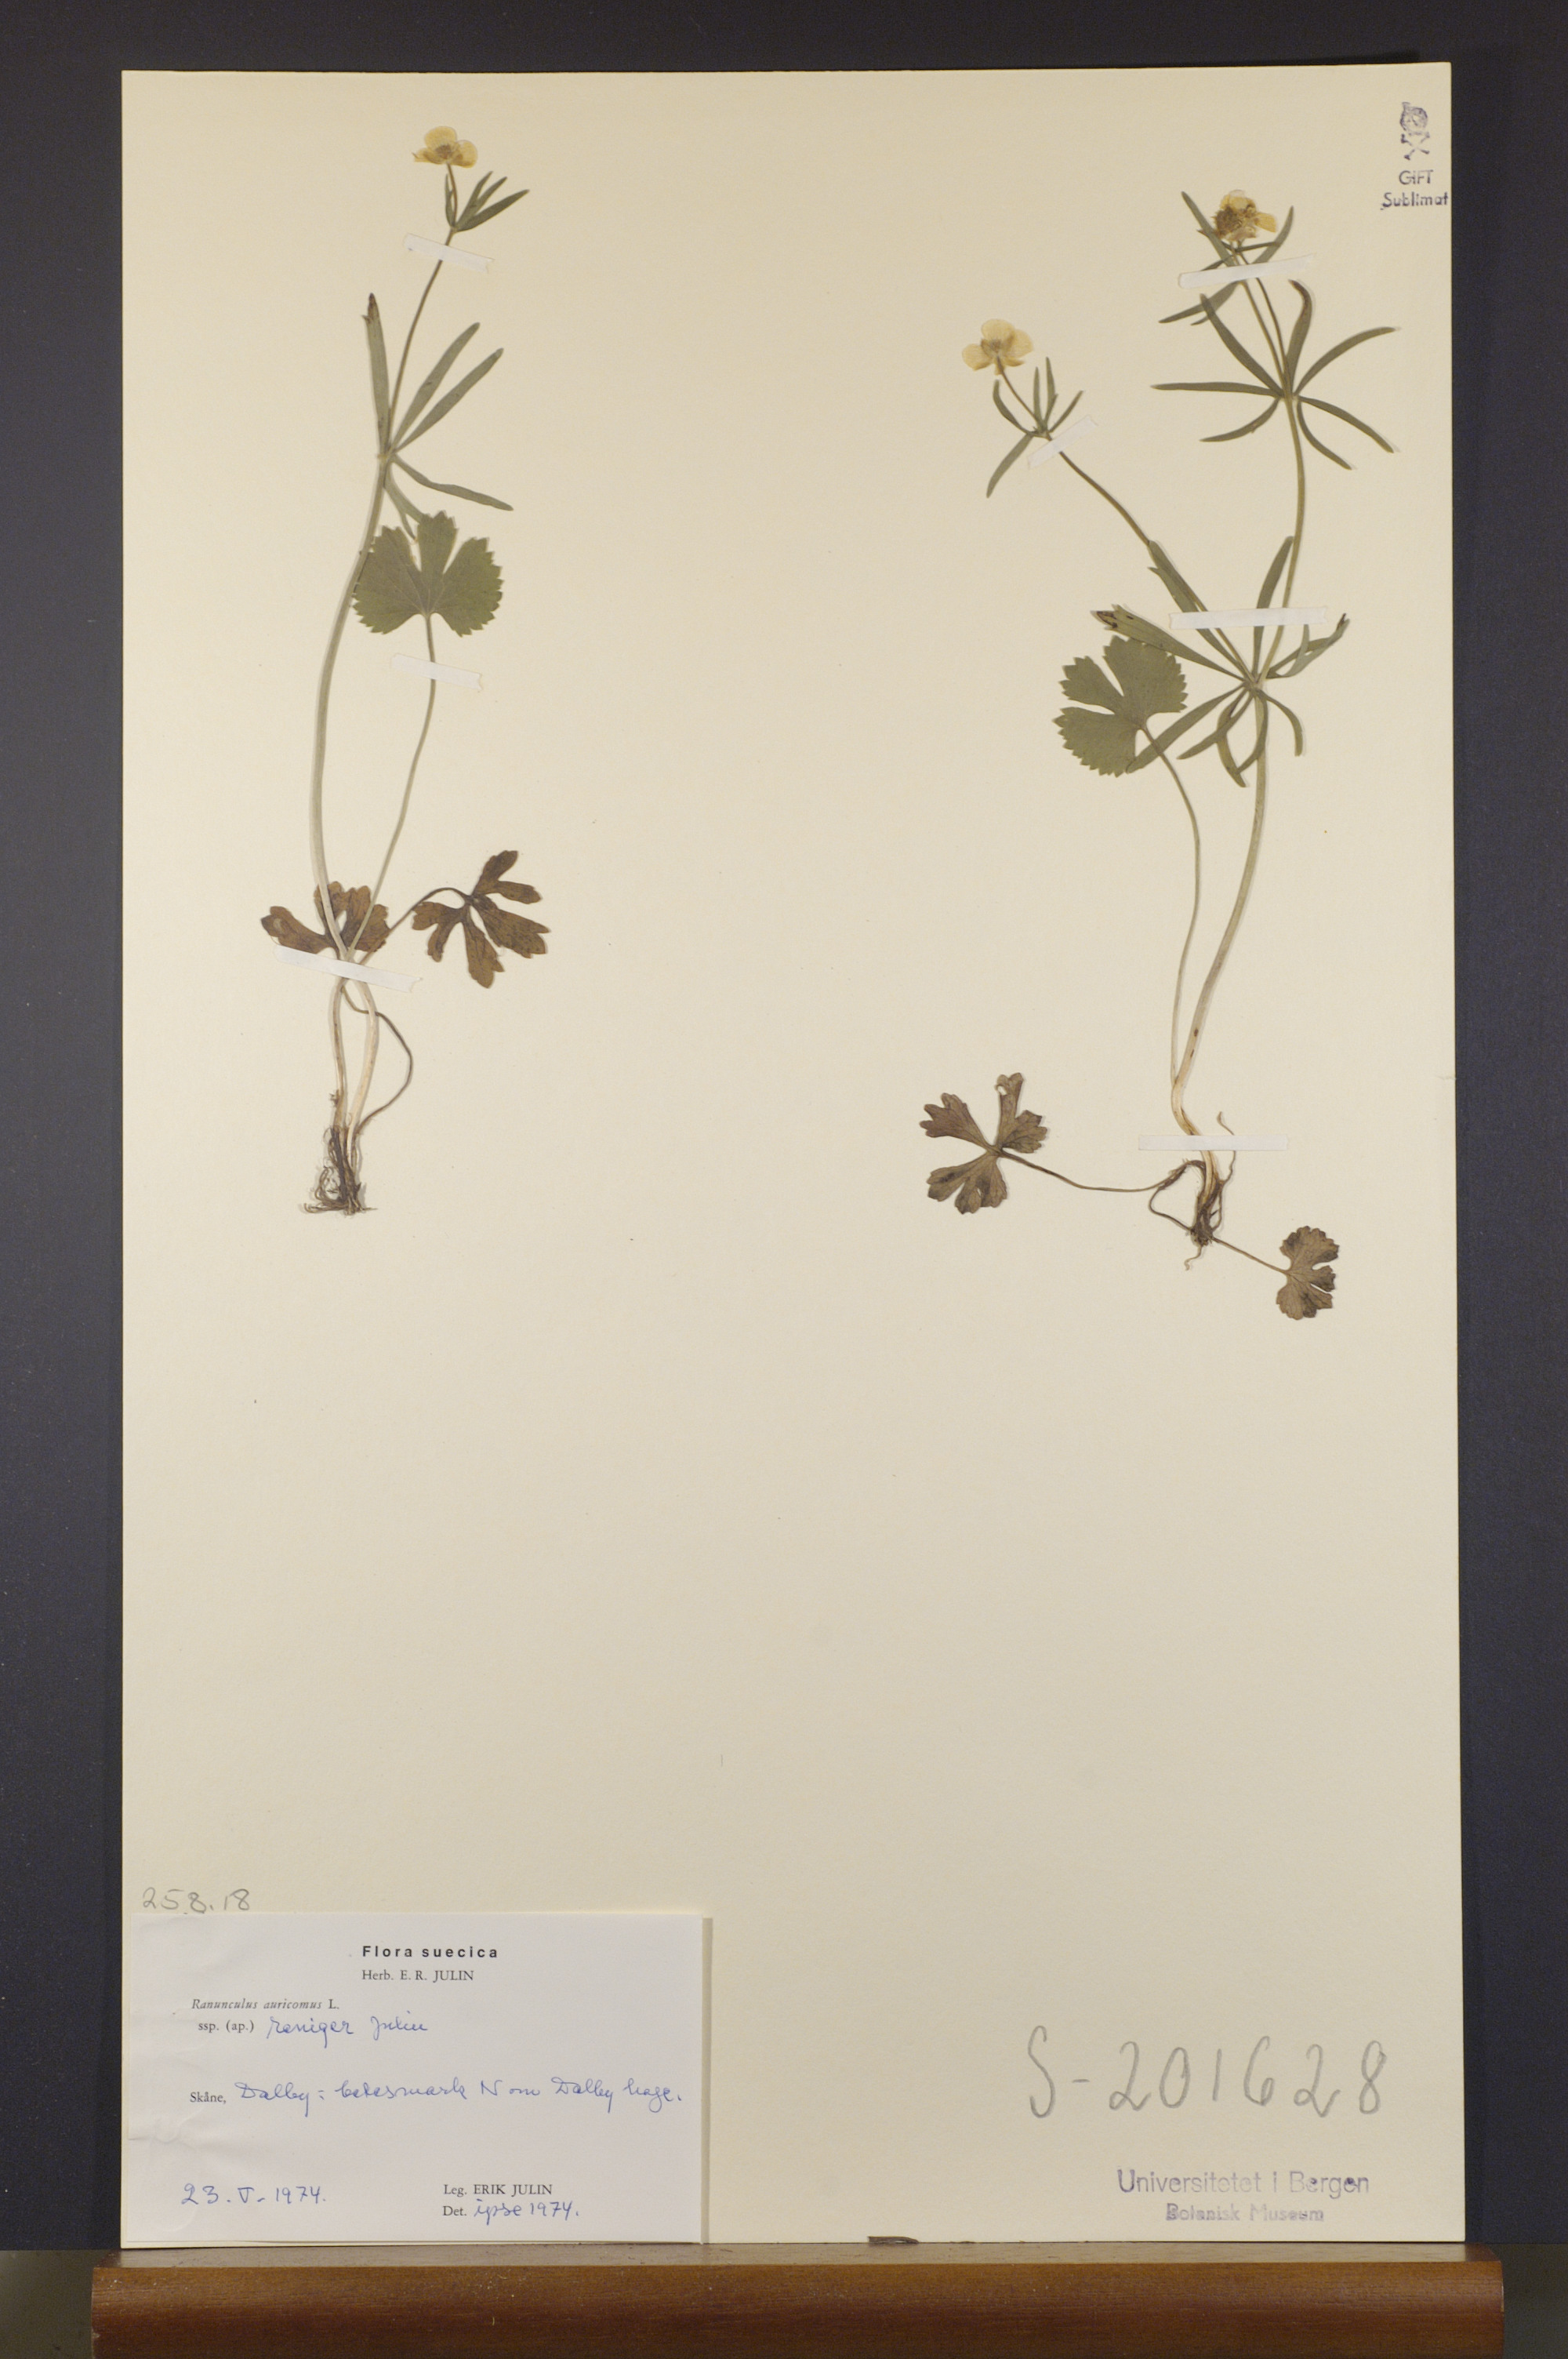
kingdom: Plantae
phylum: Tracheophyta
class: Magnoliopsida
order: Ranunculales
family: Ranunculaceae
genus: Ranunculus
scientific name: Ranunculus reniger
